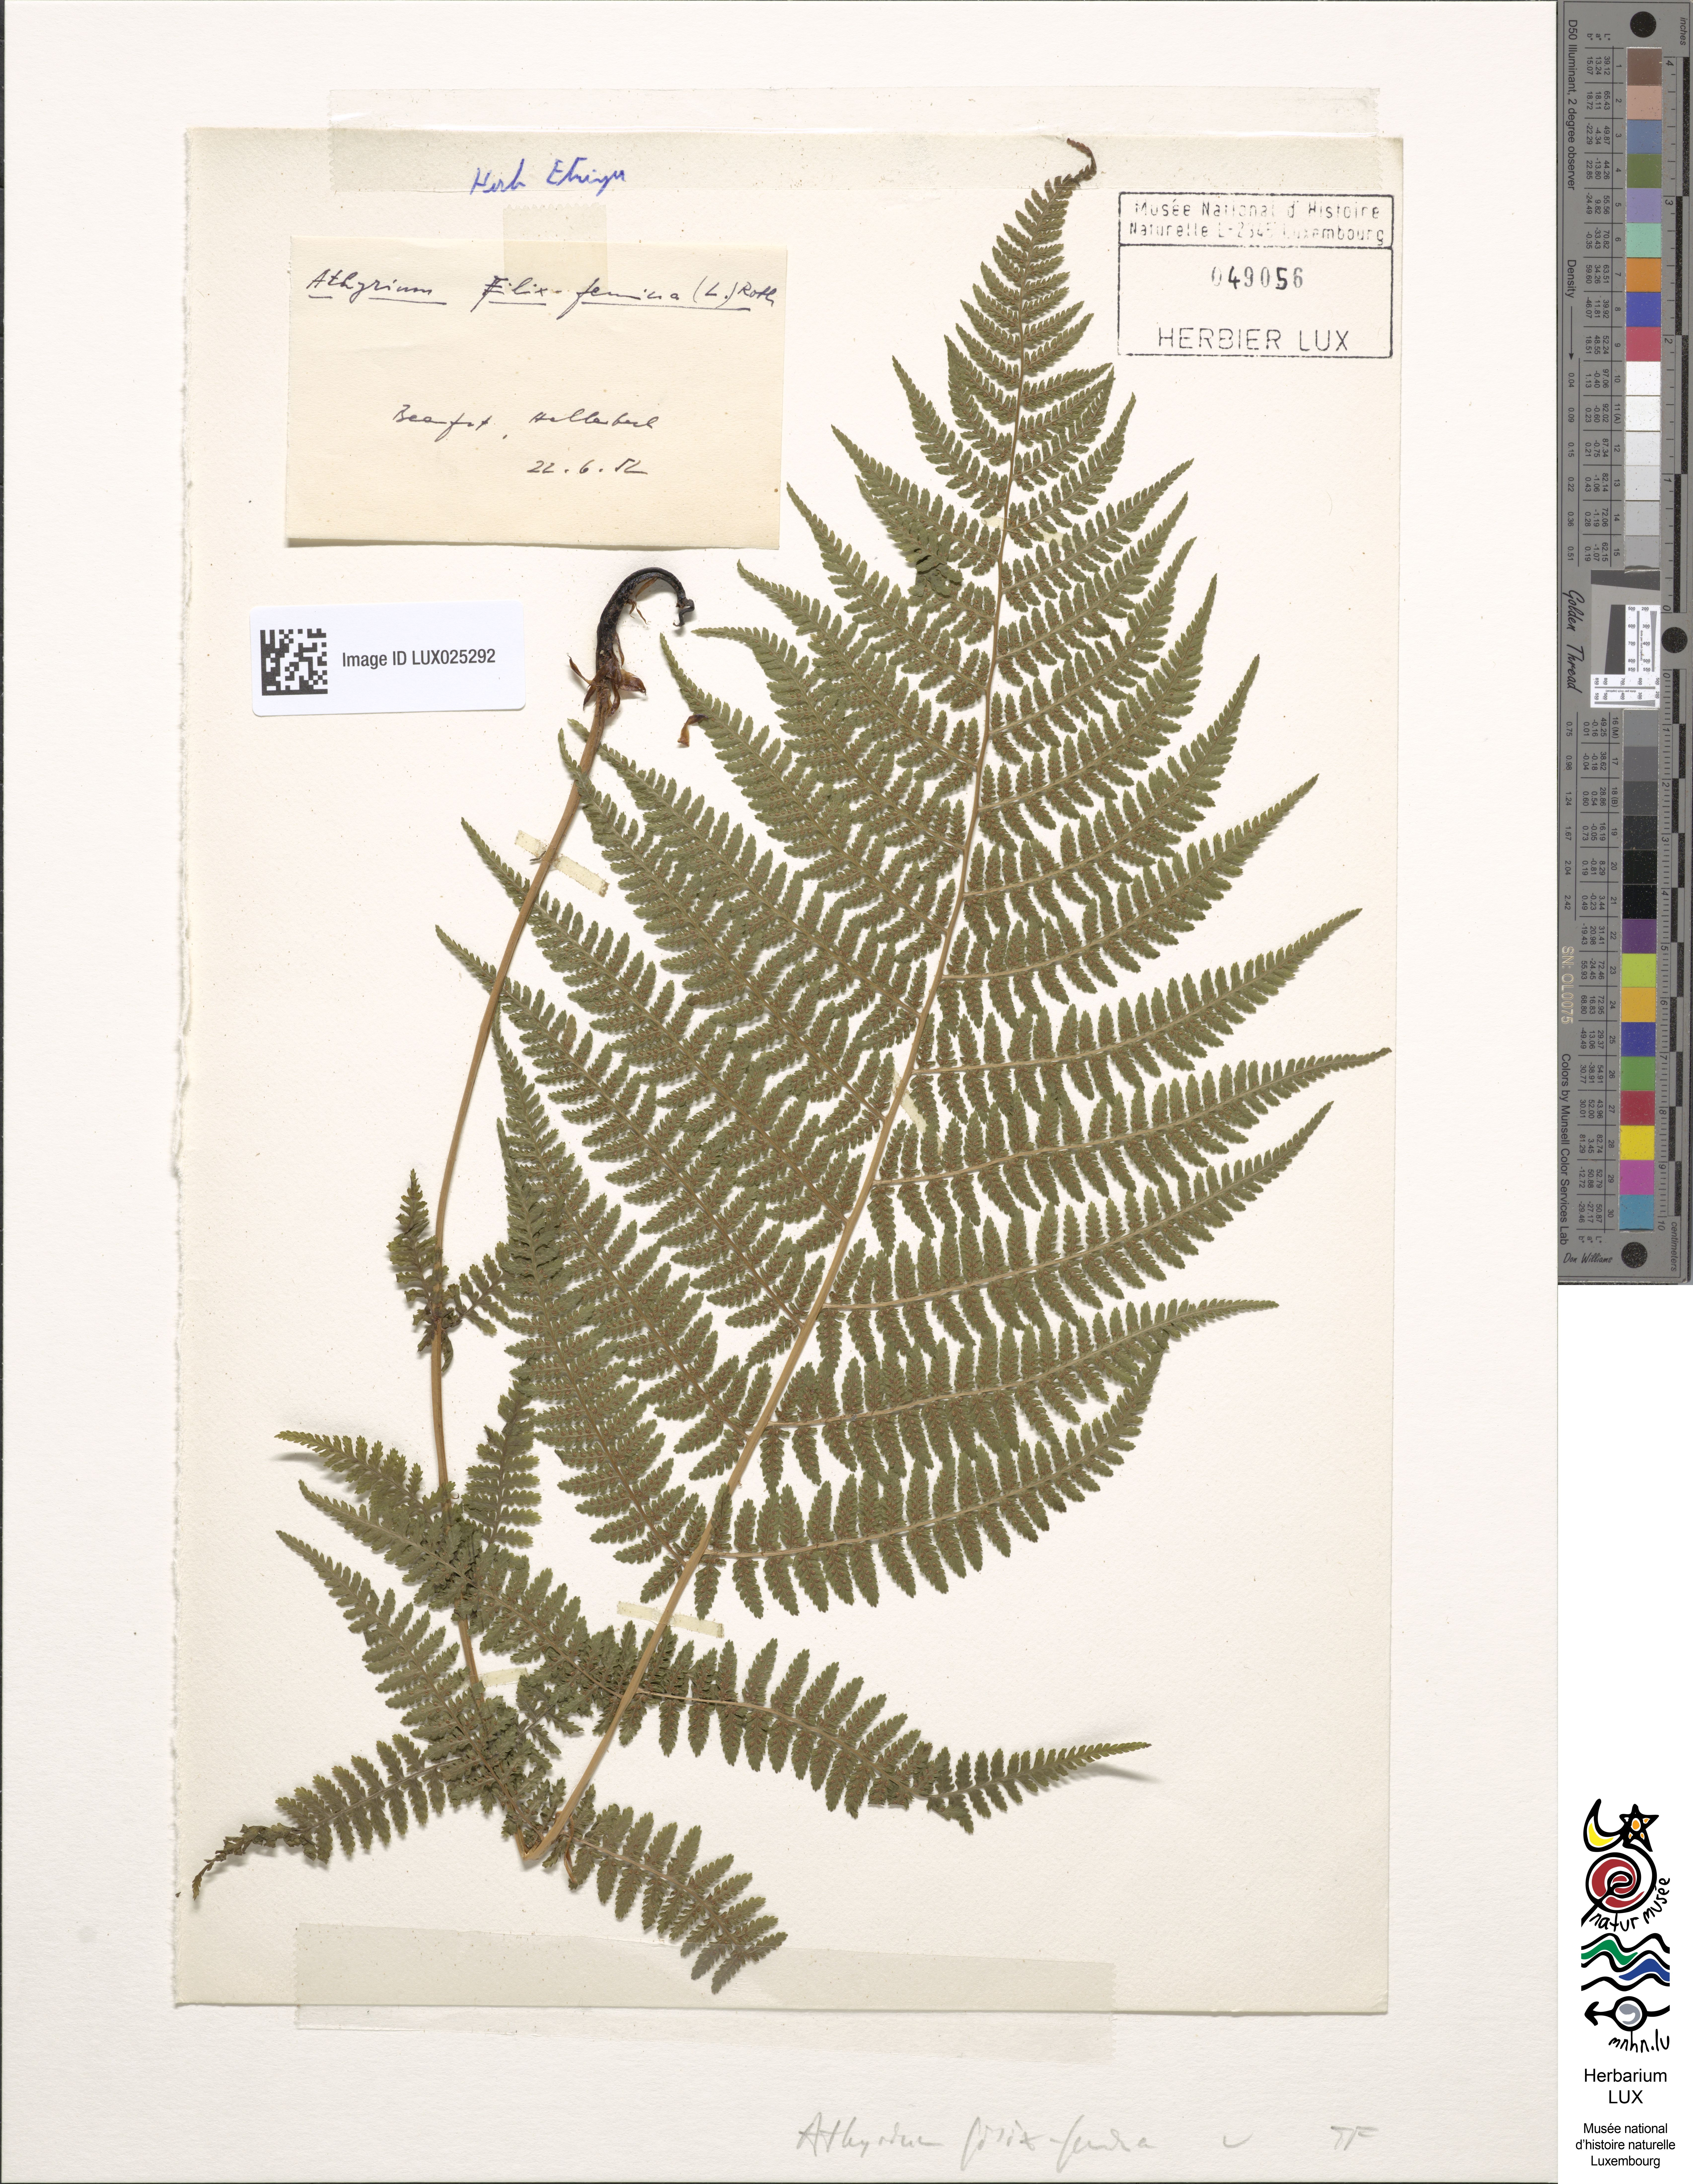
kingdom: Plantae
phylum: Tracheophyta
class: Polypodiopsida
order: Polypodiales
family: Athyriaceae
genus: Athyrium
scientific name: Athyrium filix-femina
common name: Lady fern
